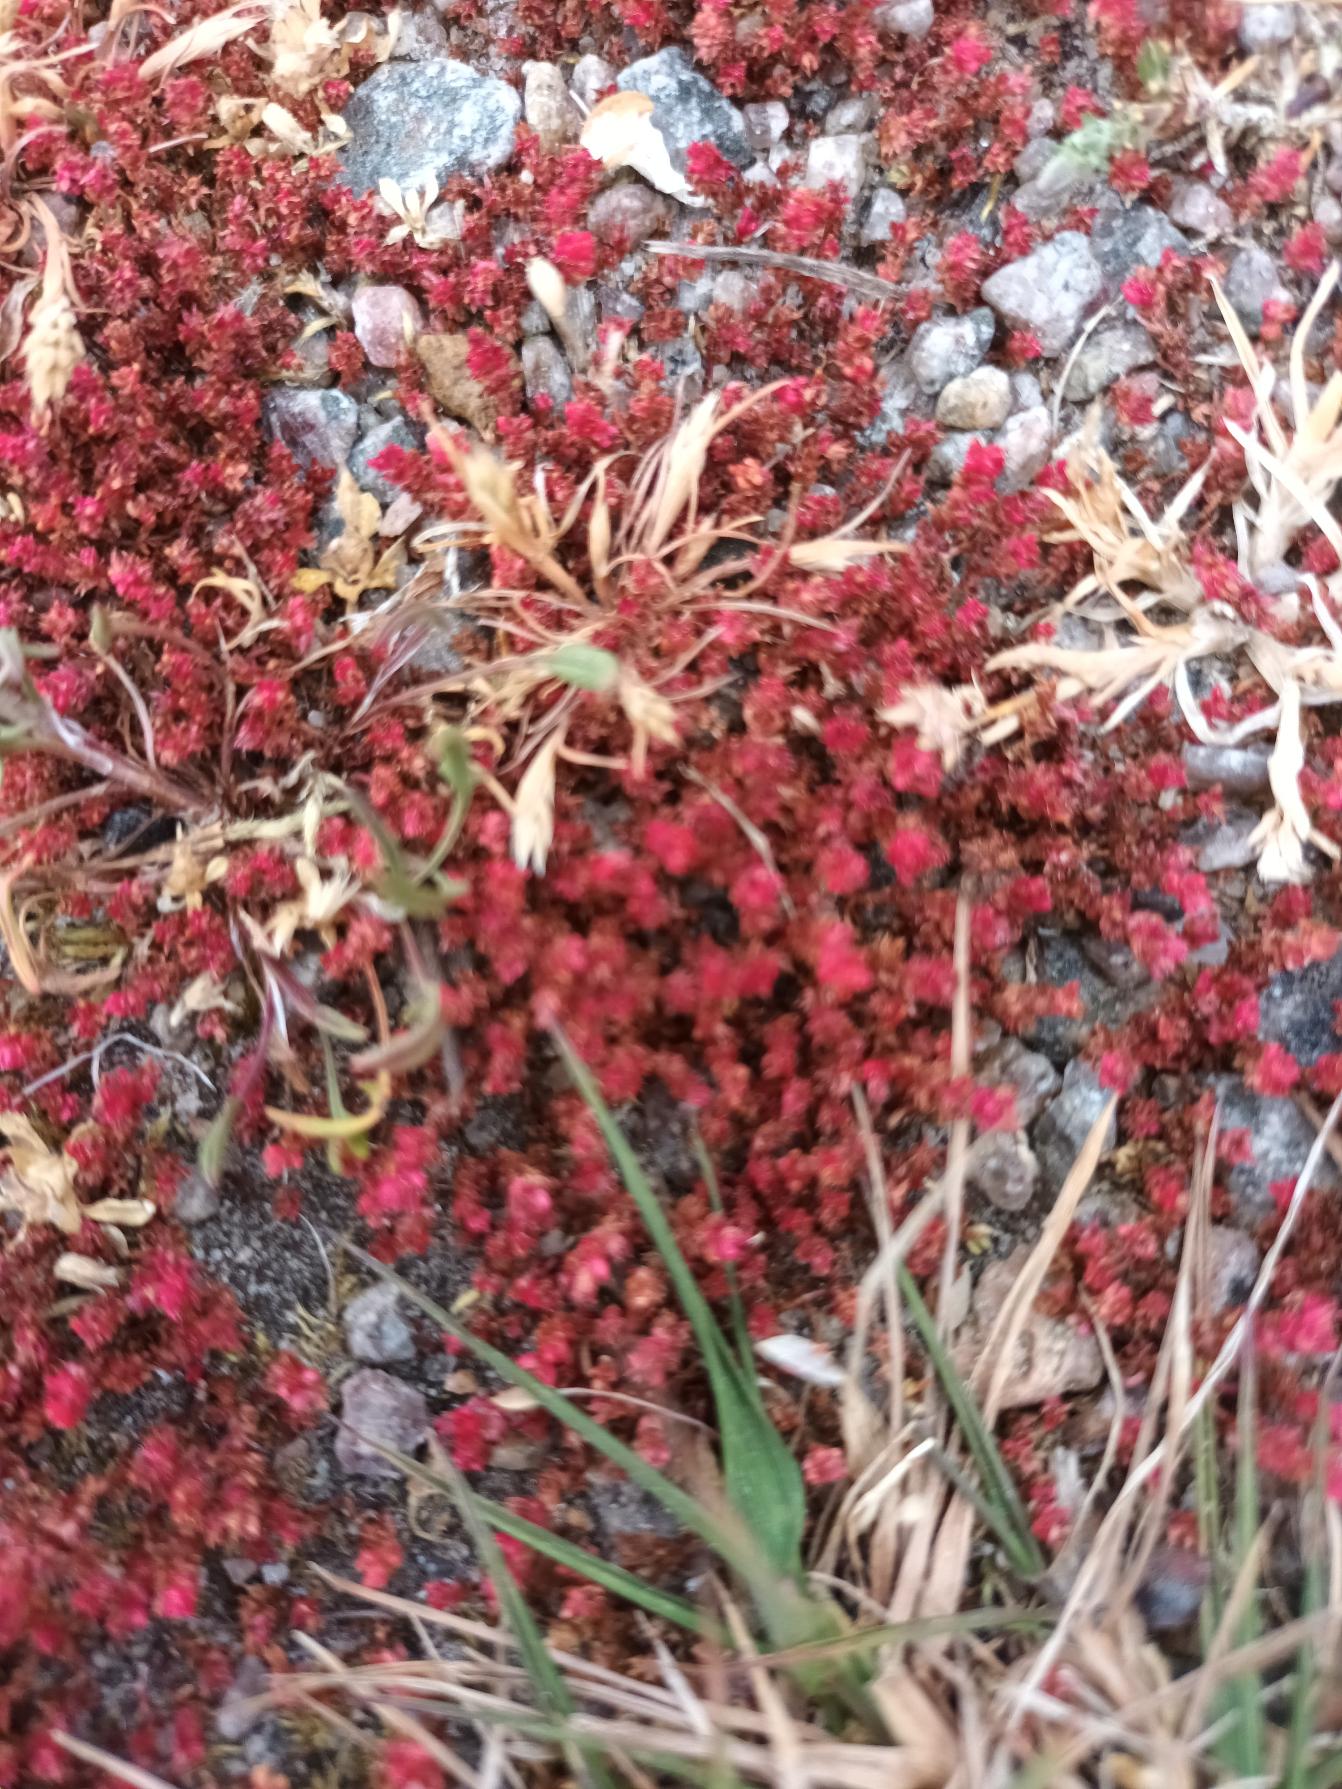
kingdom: Plantae
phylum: Tracheophyta
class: Magnoliopsida
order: Saxifragales
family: Crassulaceae
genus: Crassula
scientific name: Crassula tillaea
